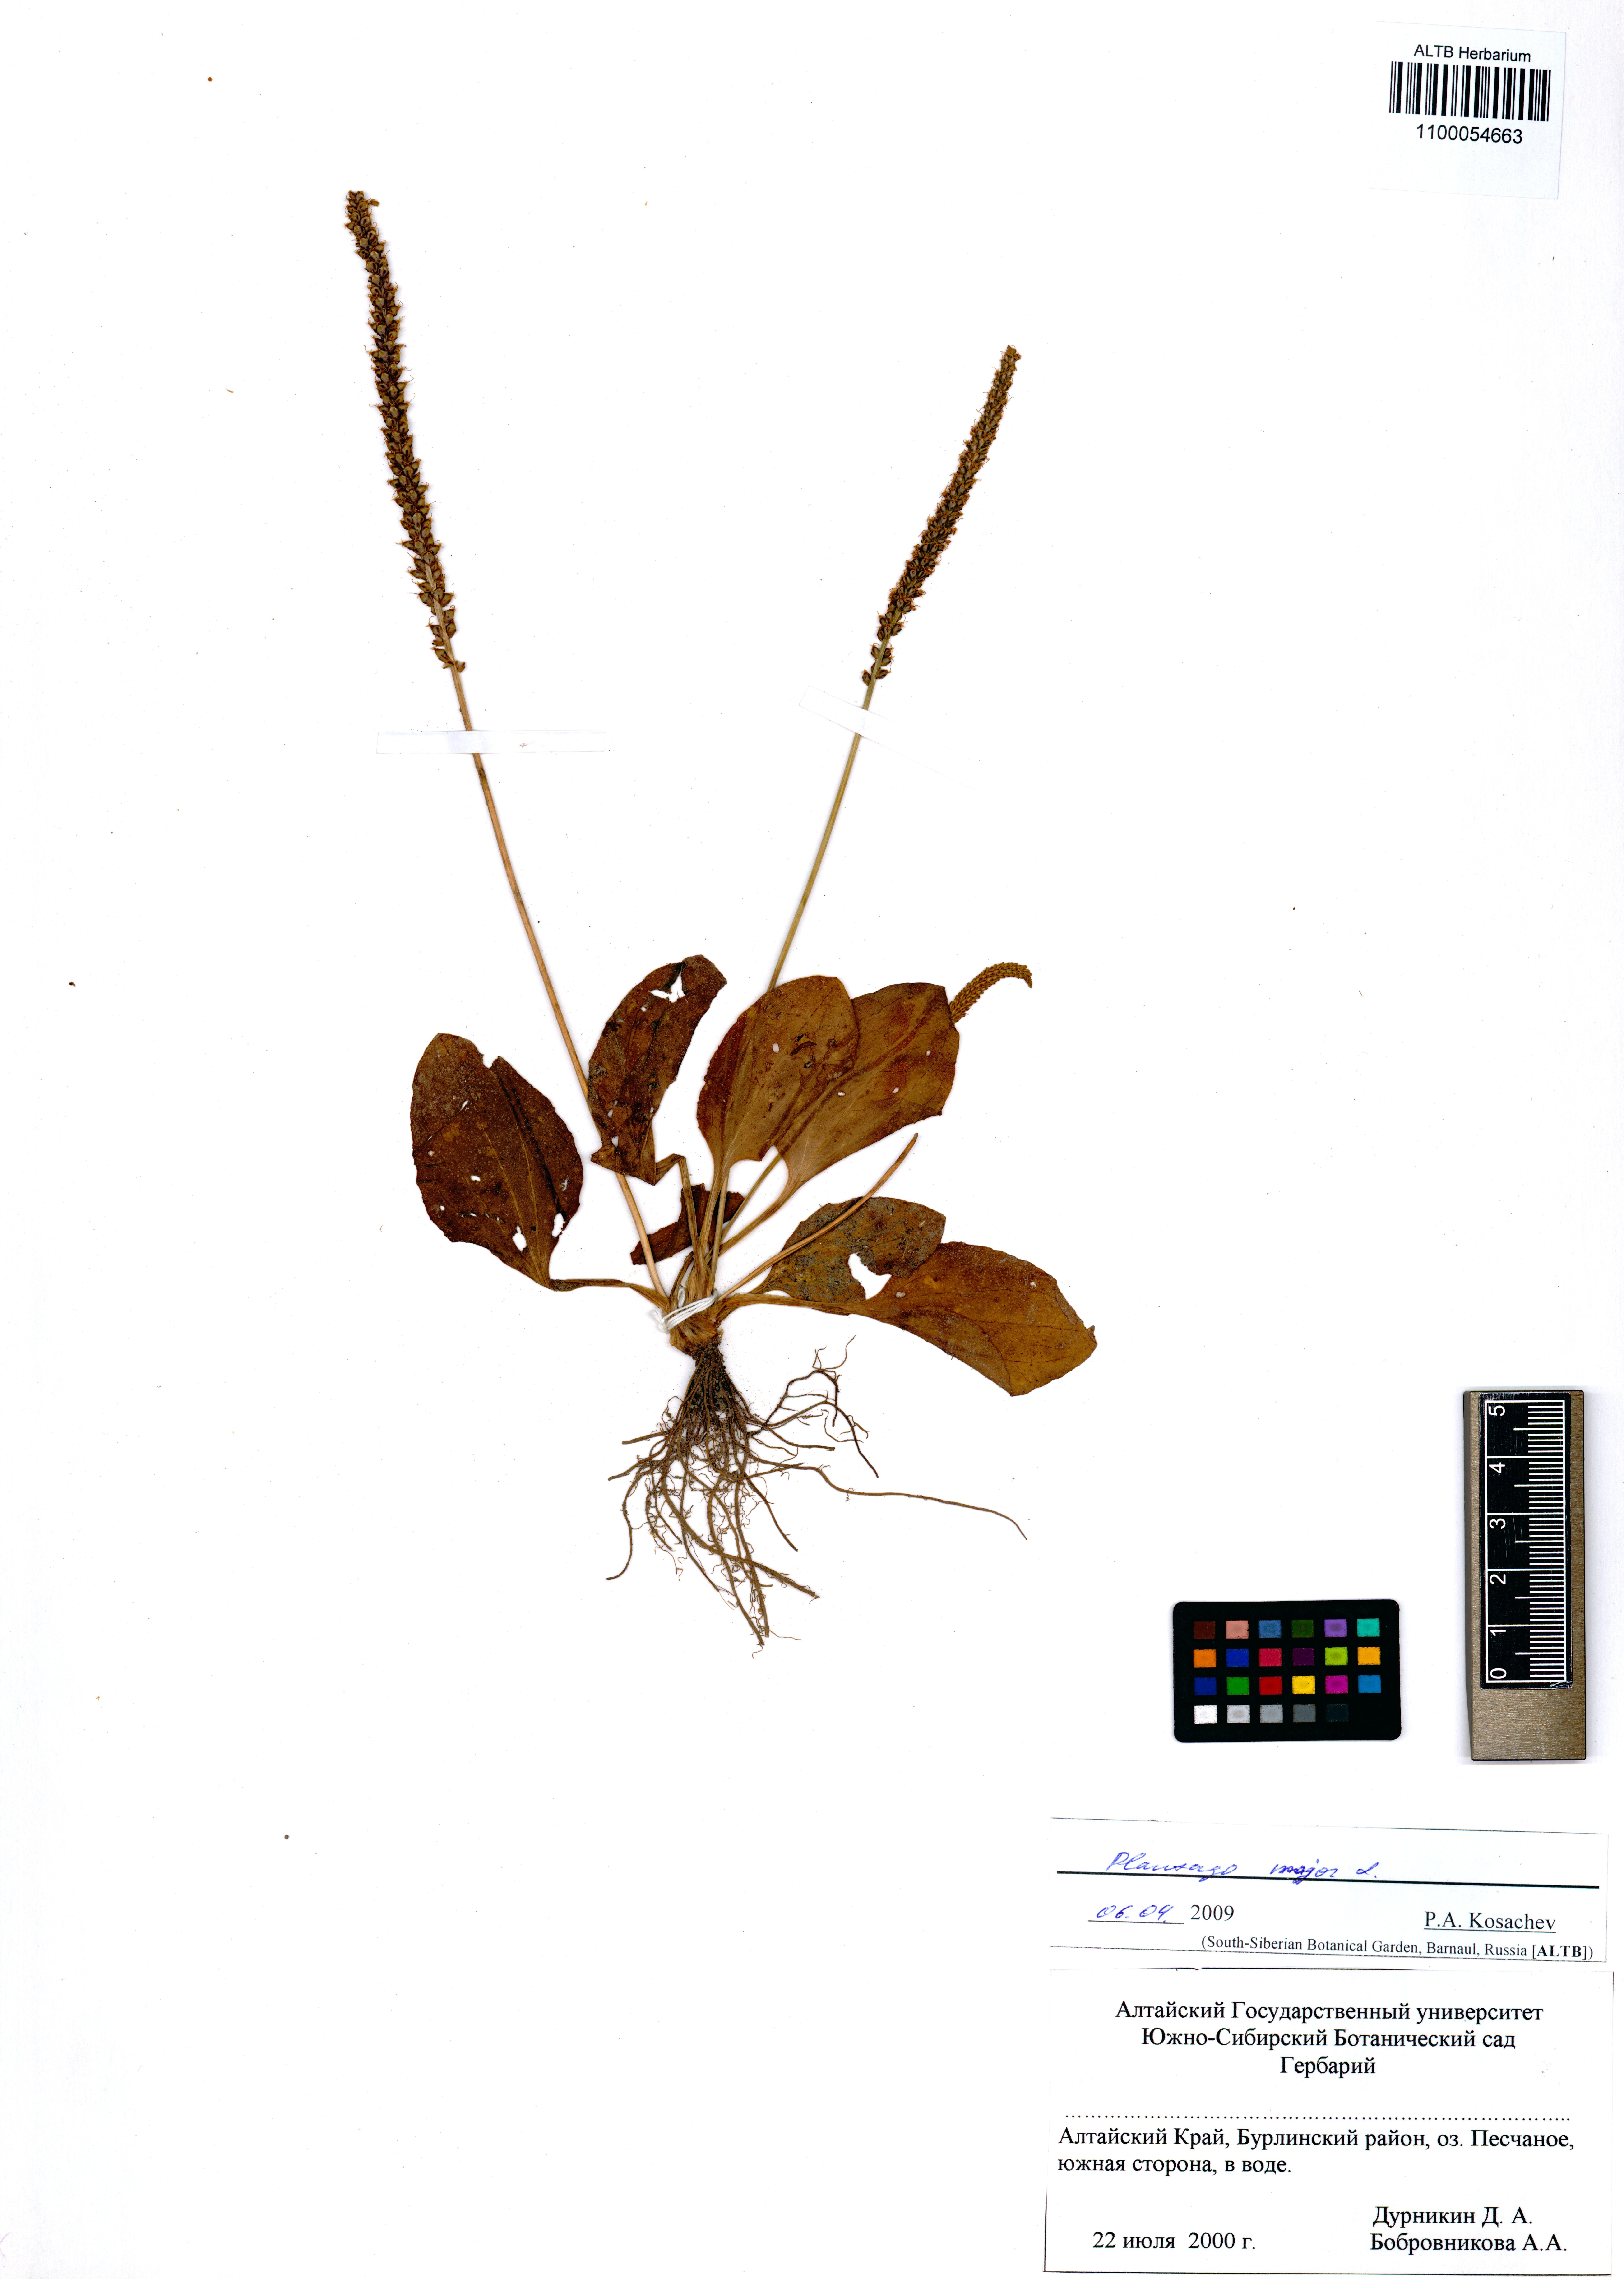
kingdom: Plantae
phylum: Tracheophyta
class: Magnoliopsida
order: Lamiales
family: Plantaginaceae
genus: Plantago
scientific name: Plantago major
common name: Common plantain
